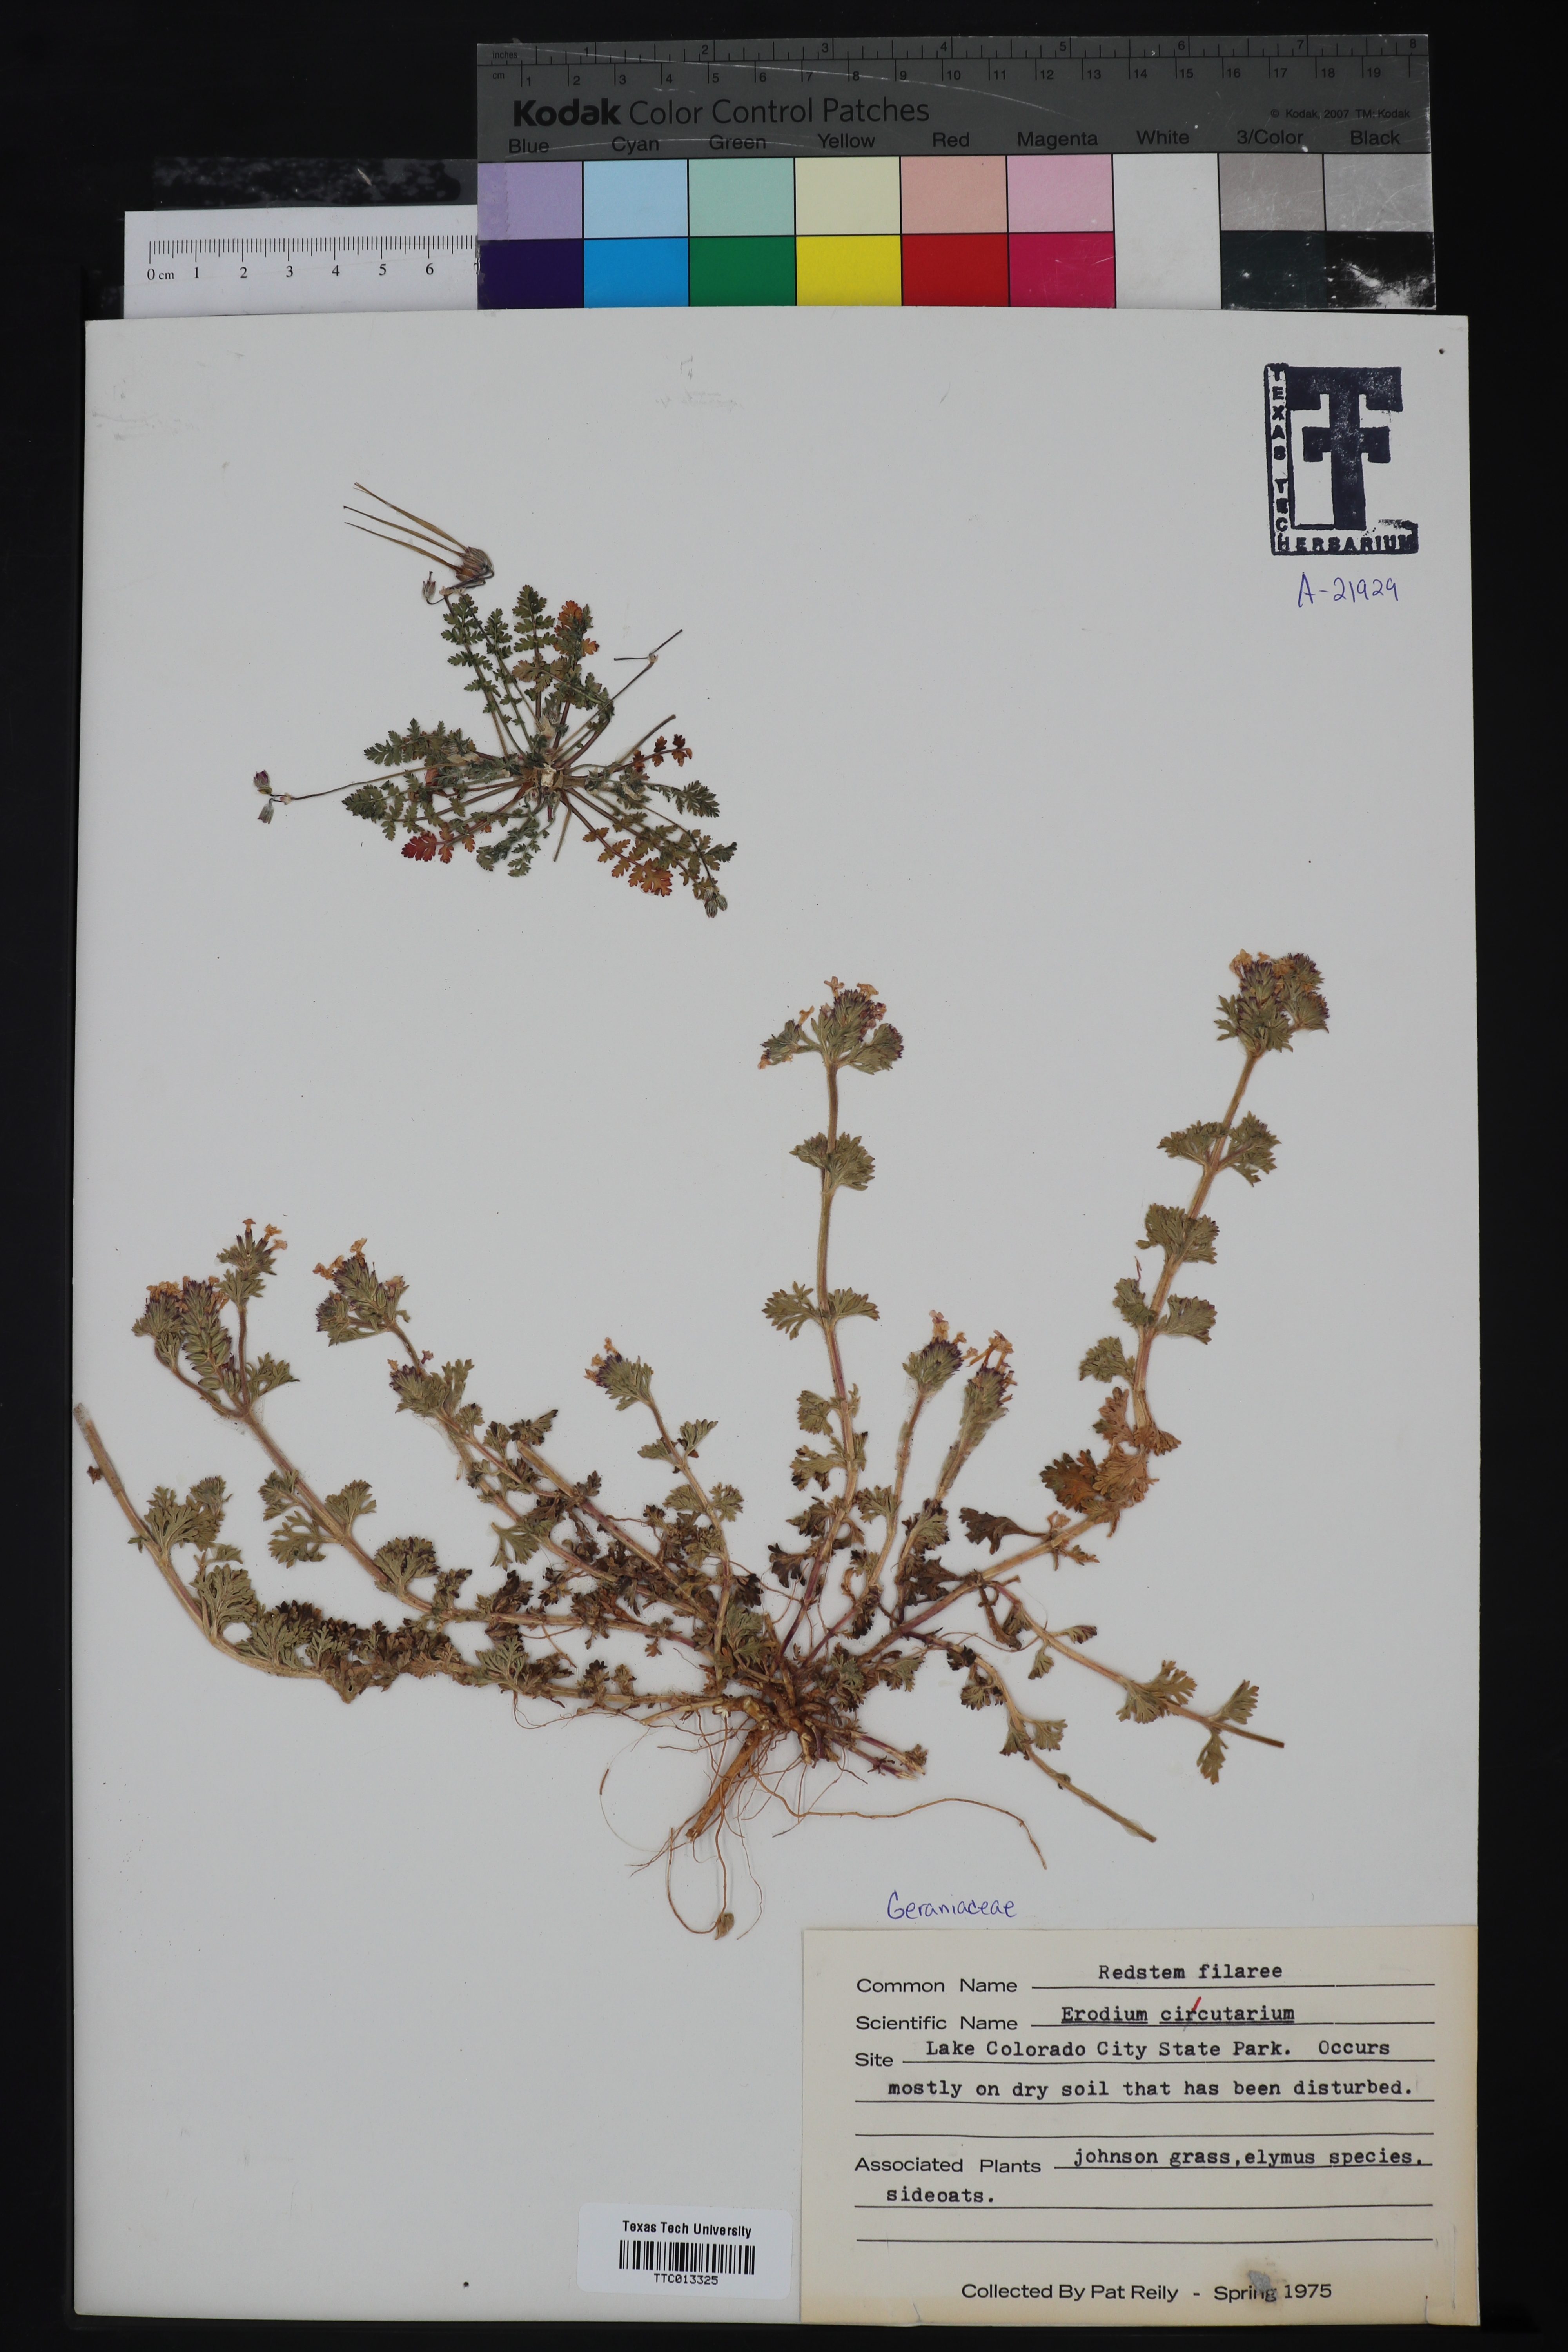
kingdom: Plantae
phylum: Tracheophyta
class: Magnoliopsida
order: Geraniales
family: Geraniaceae
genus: Erodium
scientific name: Erodium cicutarium
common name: Common stork's-bill
